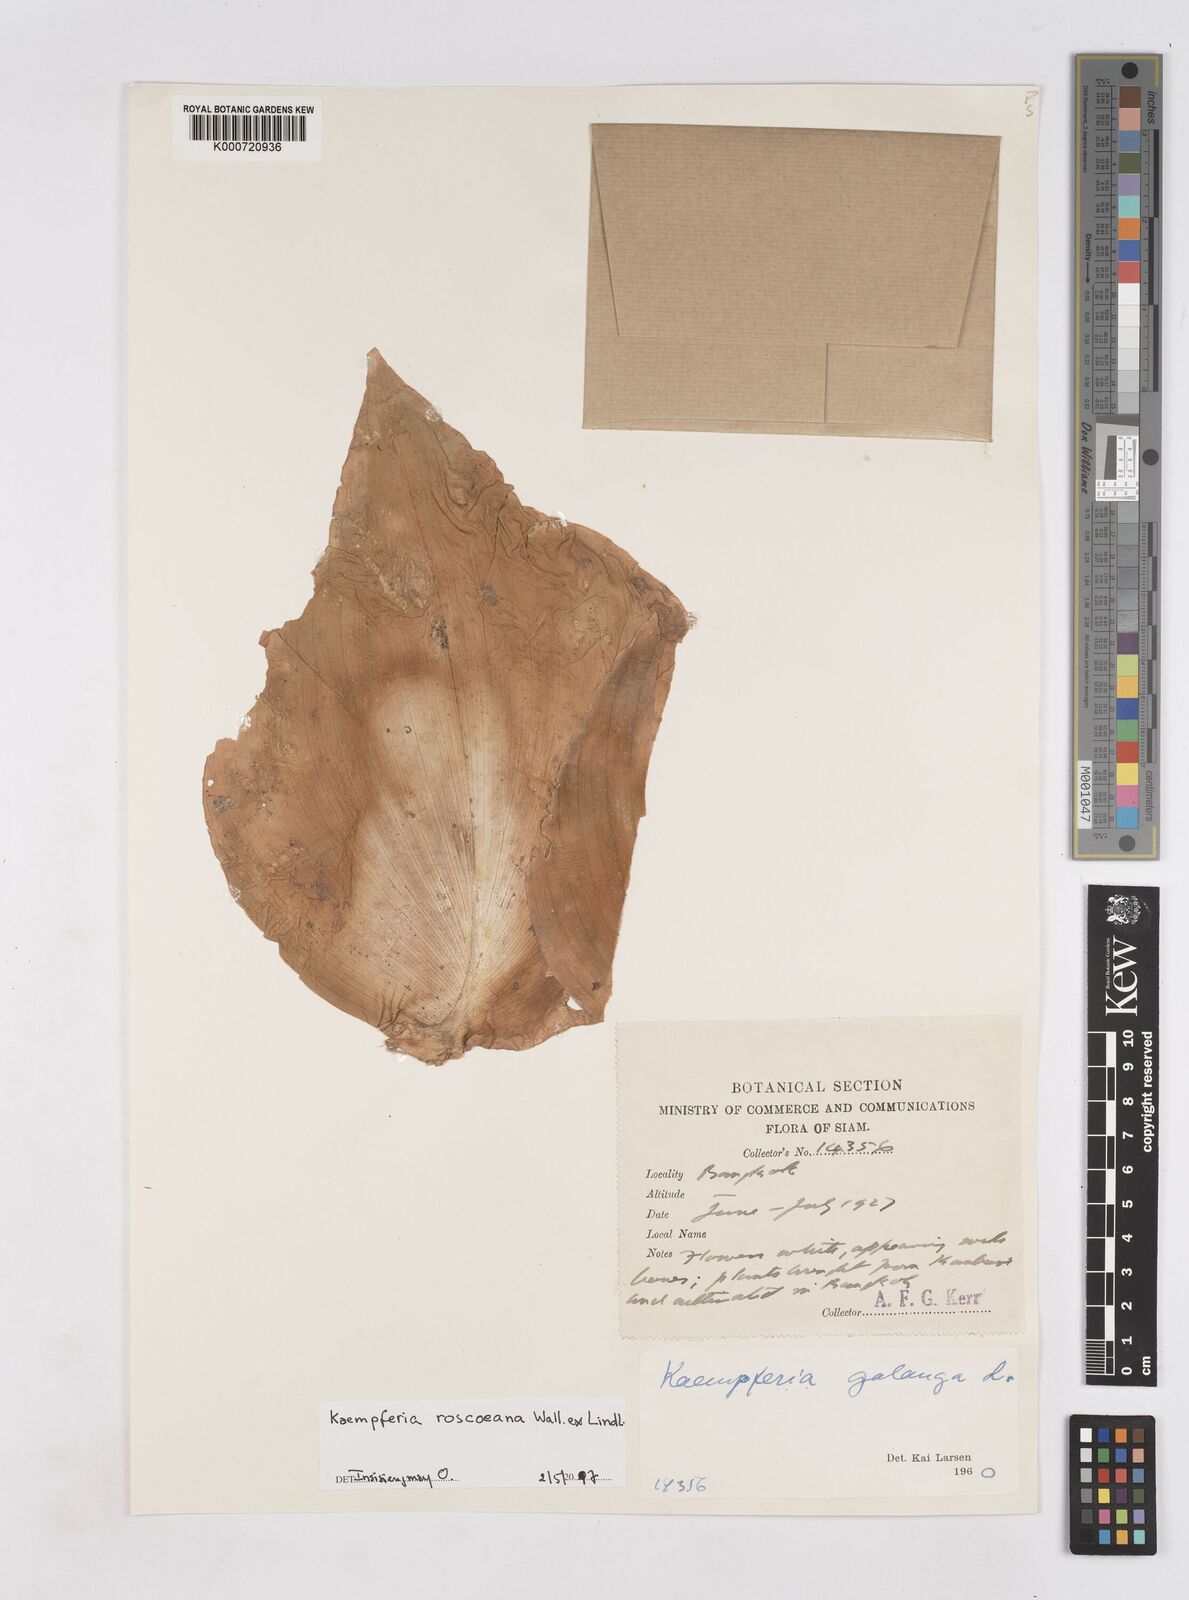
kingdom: Plantae
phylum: Tracheophyta
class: Liliopsida
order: Zingiberales
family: Zingiberaceae
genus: Kaempferia
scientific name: Kaempferia roscoeana
